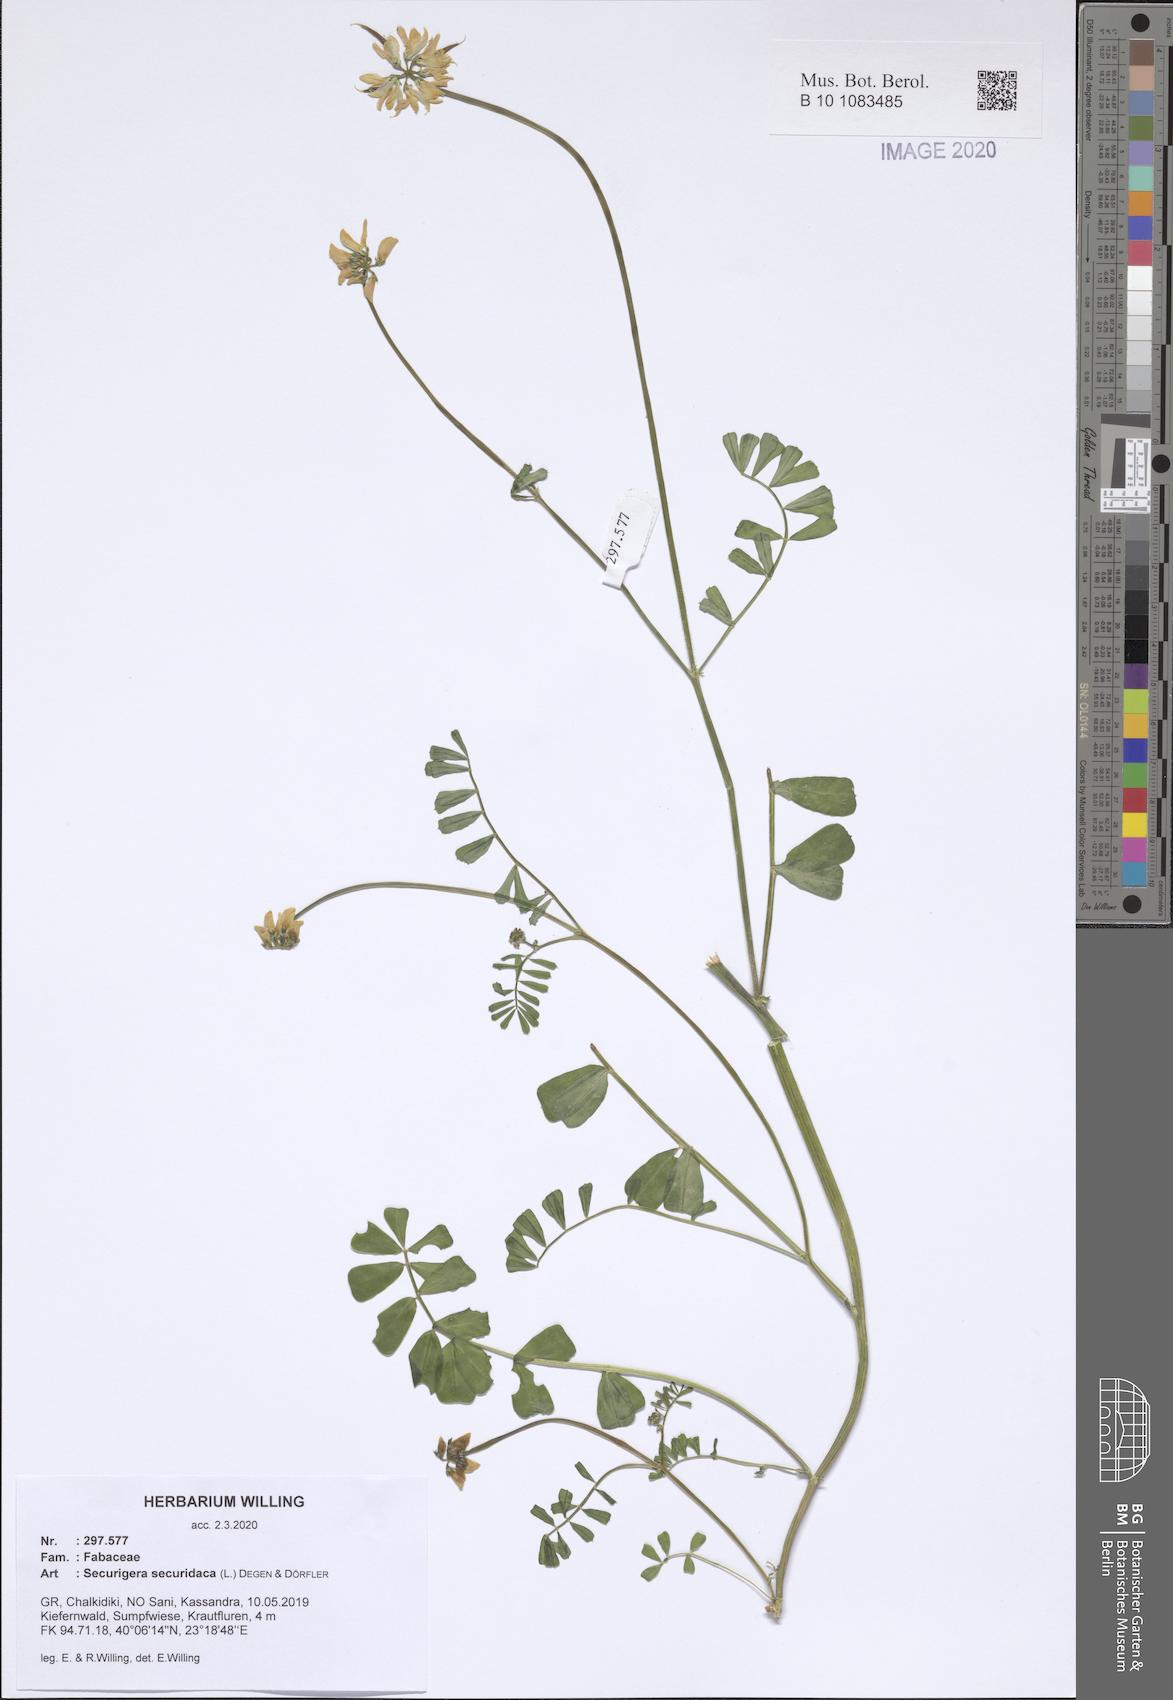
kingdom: Plantae
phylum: Tracheophyta
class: Magnoliopsida
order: Fabales
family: Fabaceae
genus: Coronilla
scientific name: Coronilla securidaca
